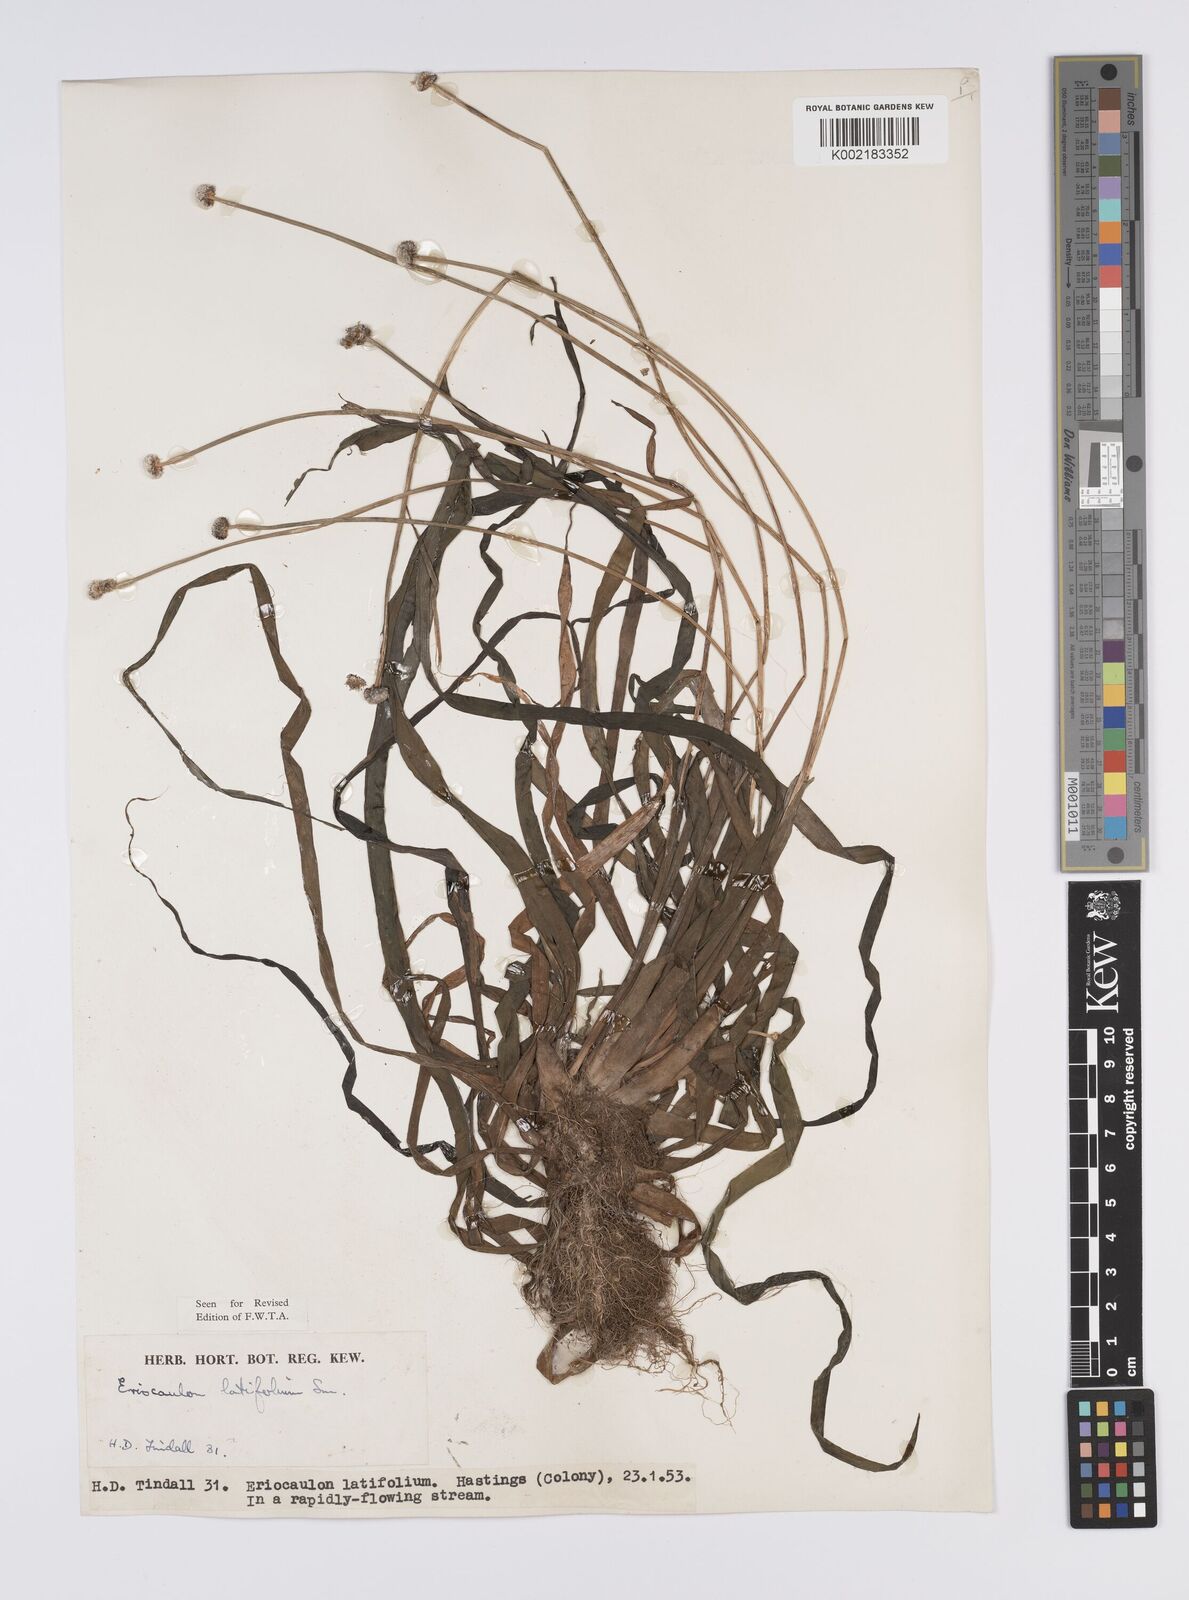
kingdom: Plantae
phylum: Tracheophyta
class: Liliopsida
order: Poales
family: Eriocaulaceae
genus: Eriocaulon
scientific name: Eriocaulon latifolium
